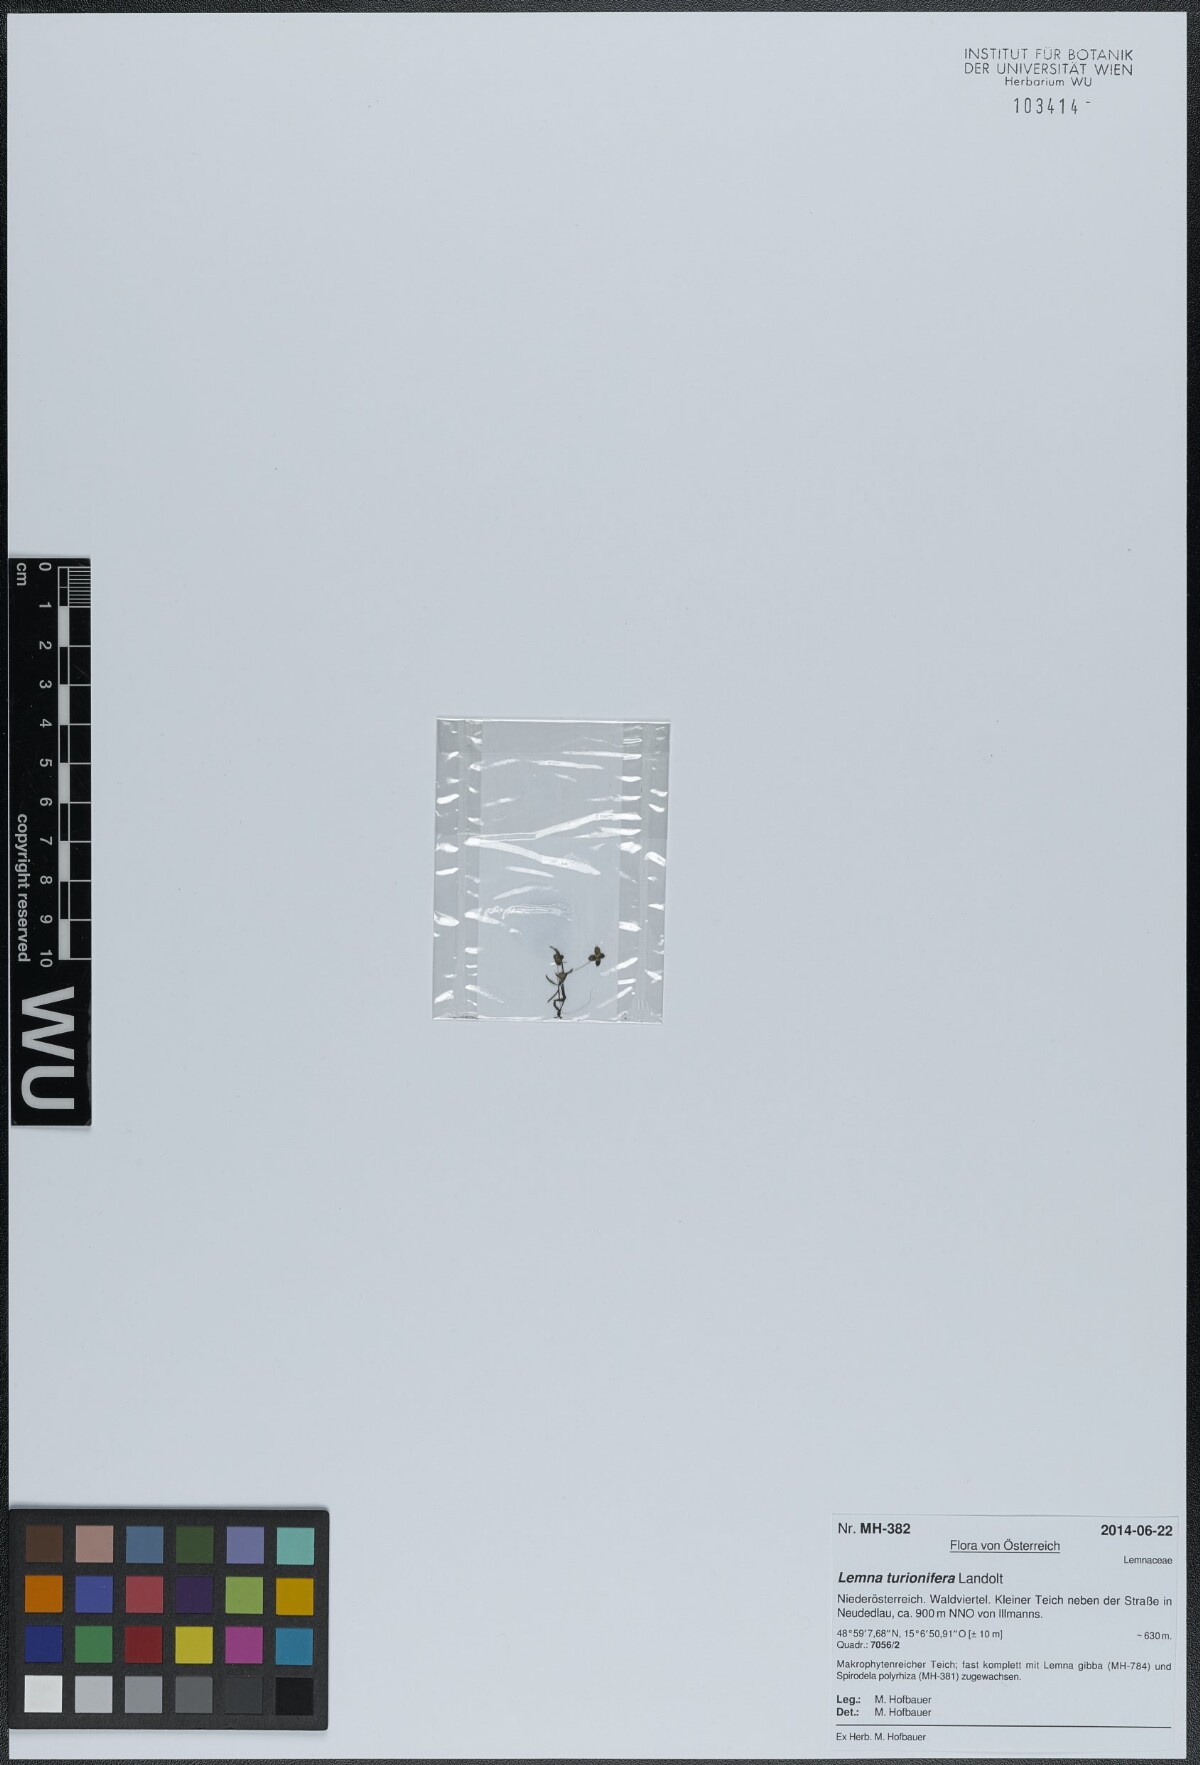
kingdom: Plantae
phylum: Tracheophyta
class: Liliopsida
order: Alismatales
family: Araceae
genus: Lemna
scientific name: Lemna turionifera
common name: Perennial duckweed
